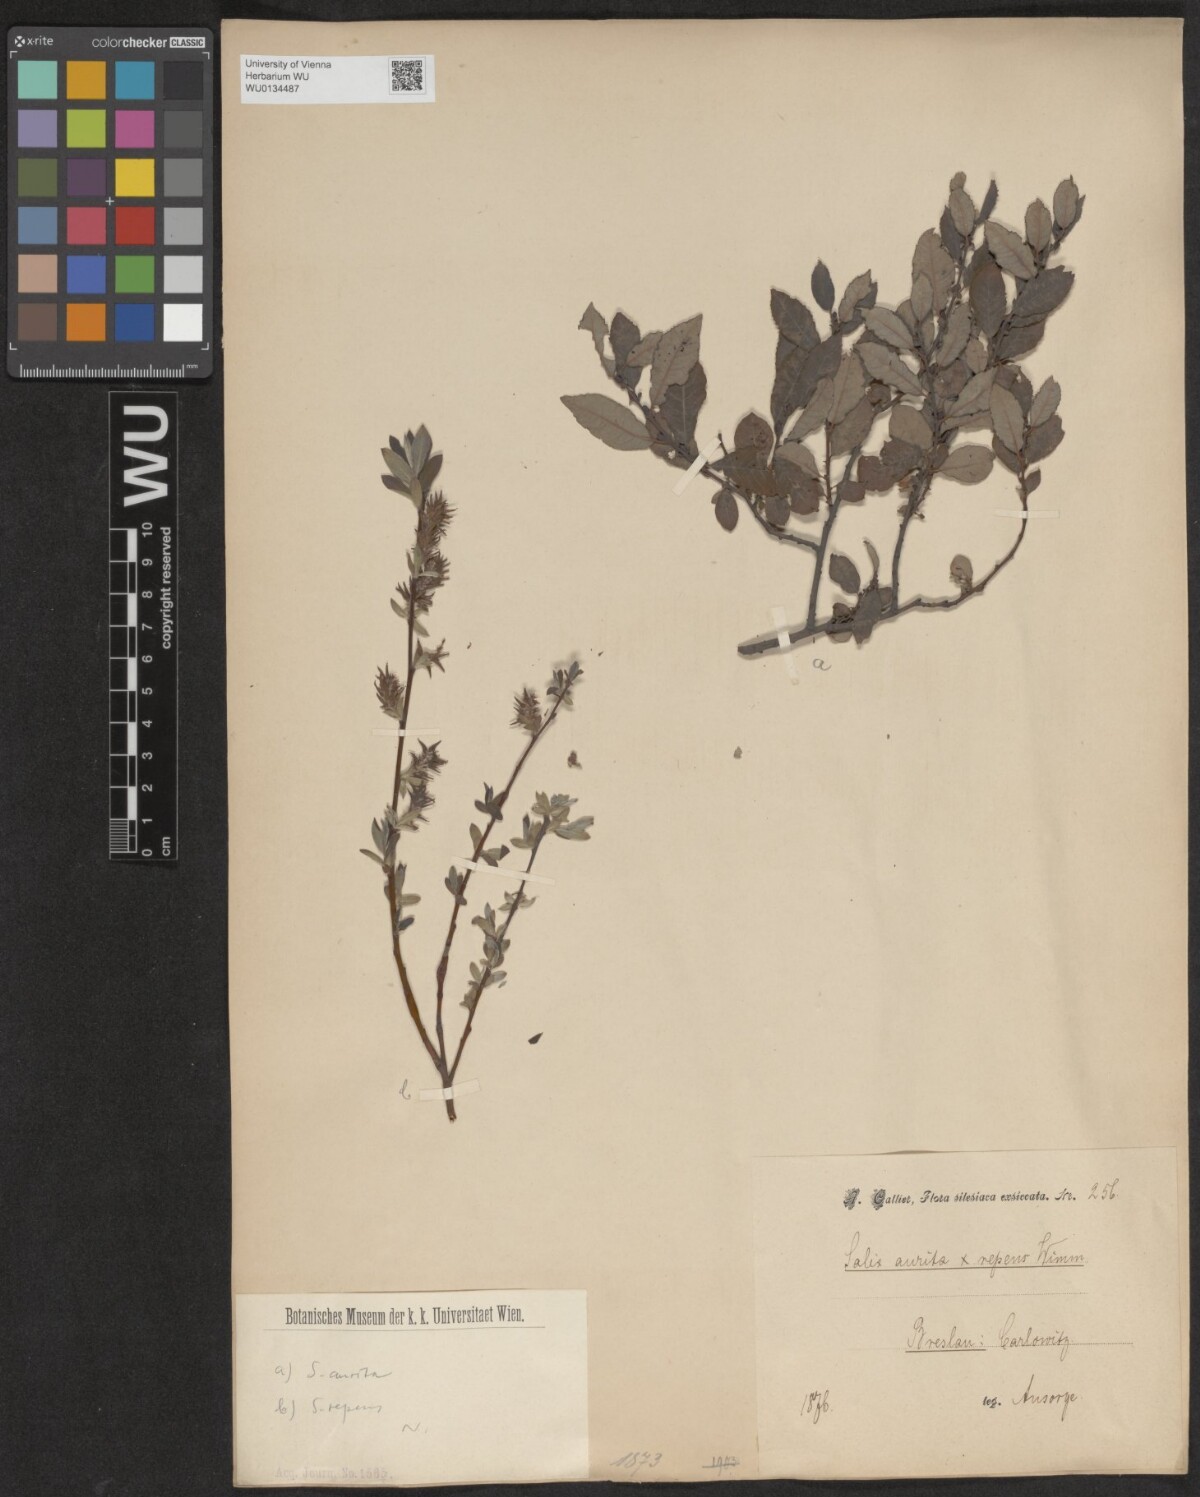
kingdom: Plantae
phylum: Tracheophyta
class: Magnoliopsida
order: Malpighiales
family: Salicaceae
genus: Salix
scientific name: Salix aurita
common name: Eared willow
